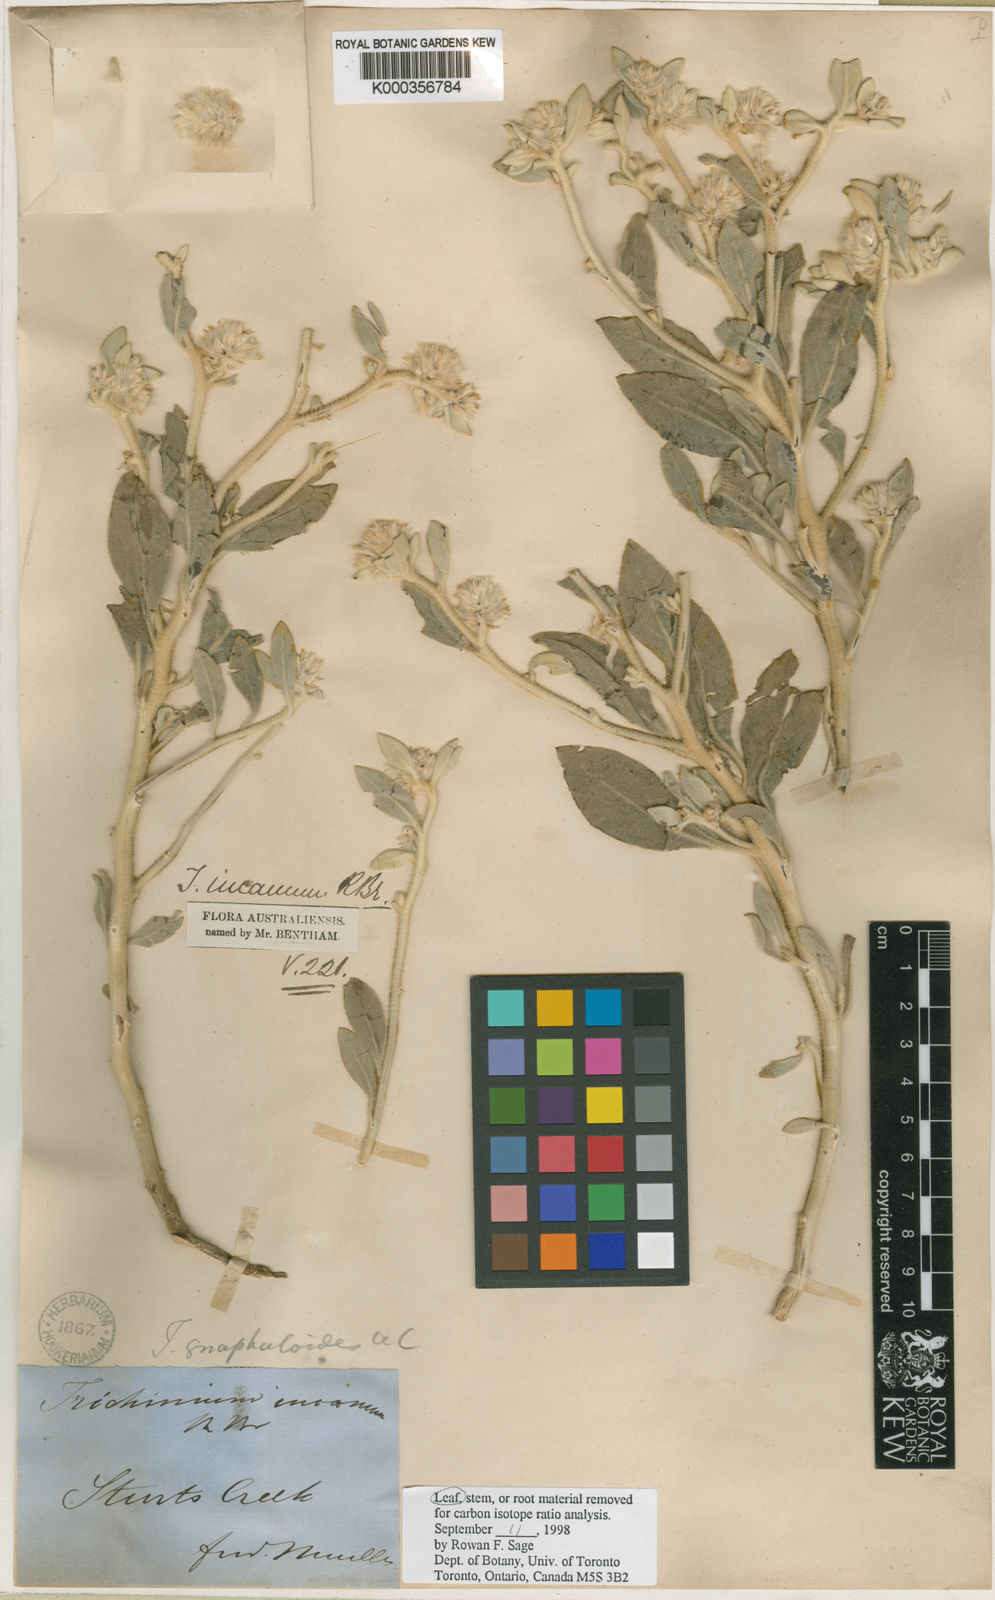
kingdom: Plantae
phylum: Tracheophyta
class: Magnoliopsida
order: Caryophyllales
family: Amaranthaceae
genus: Ptilotus
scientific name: Ptilotus incanus
